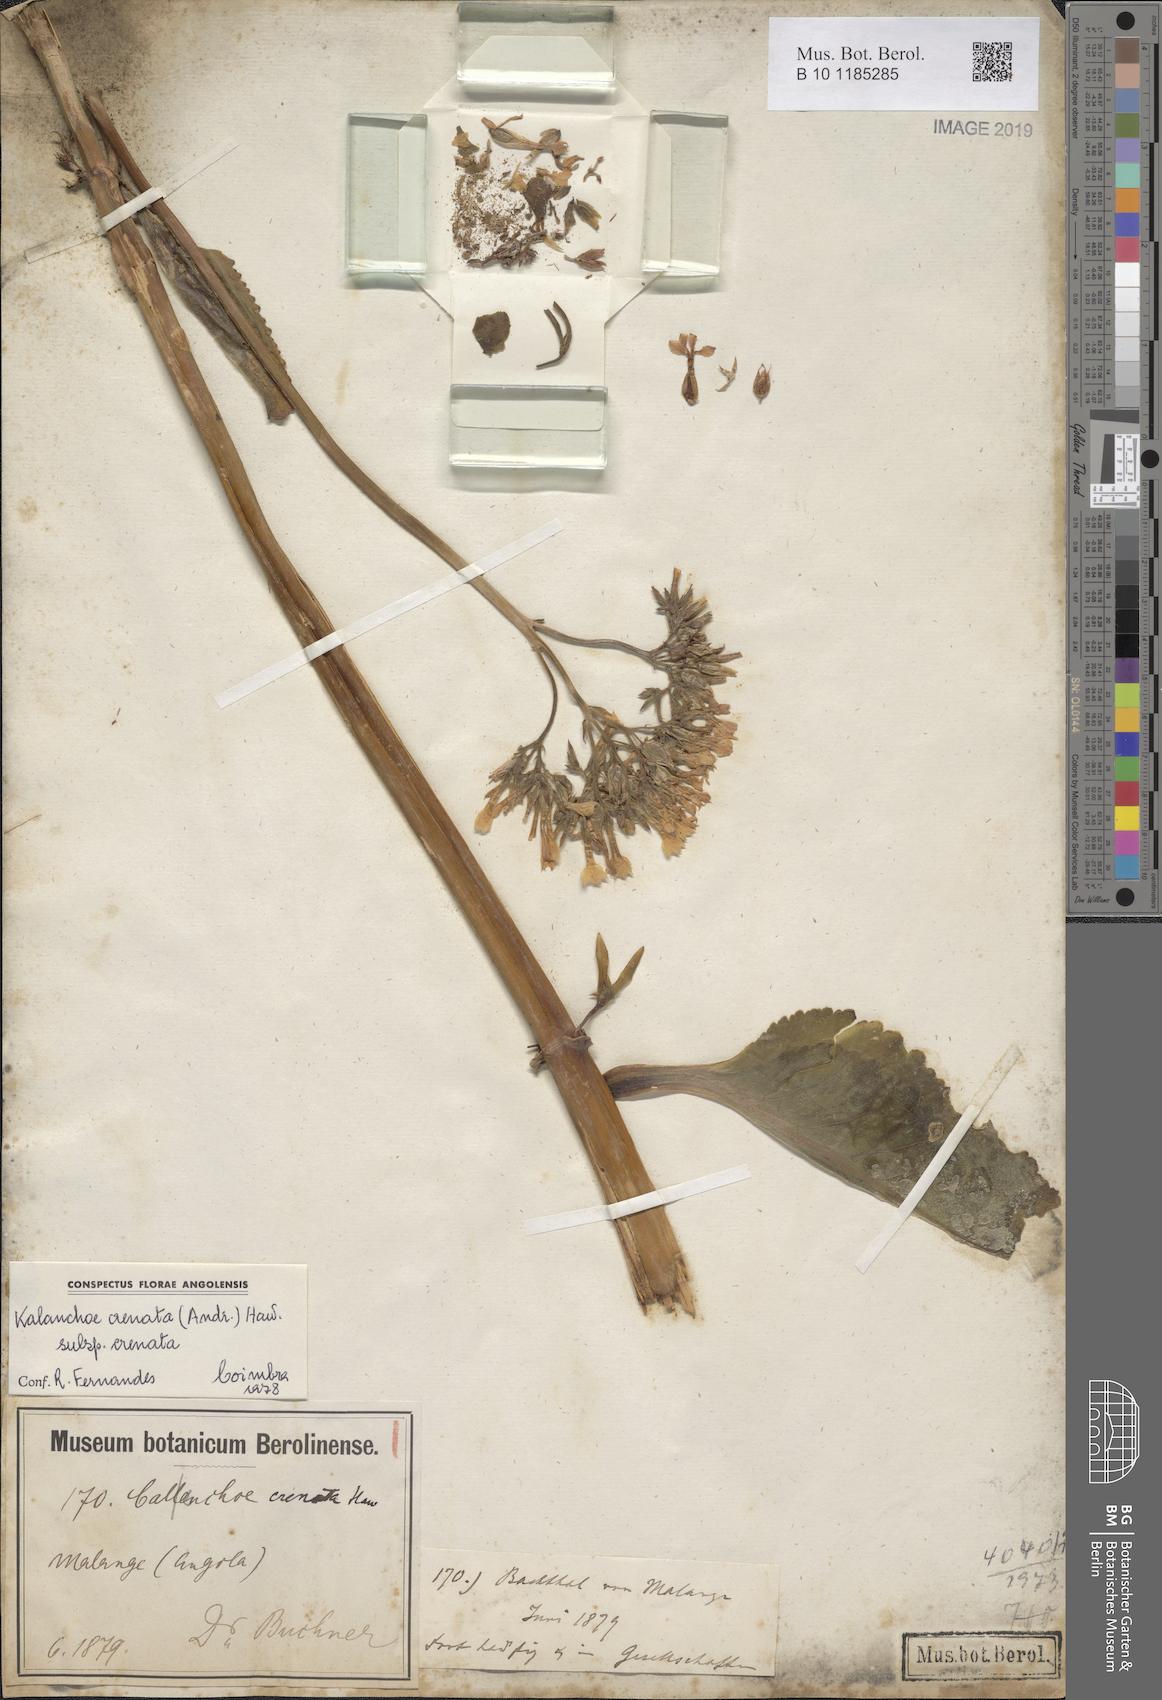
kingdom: Plantae
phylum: Tracheophyta
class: Magnoliopsida
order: Saxifragales
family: Crassulaceae
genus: Kalanchoe
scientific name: Kalanchoe crenata
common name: Neverdie
